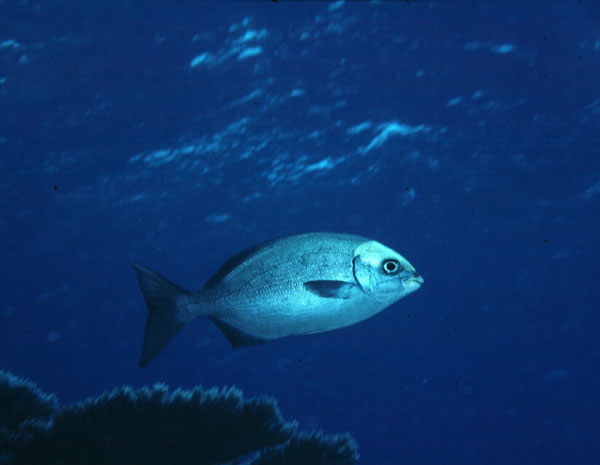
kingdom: Animalia
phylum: Chordata
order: Perciformes
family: Kyphosidae
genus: Kyphosus
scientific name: Kyphosus bigibbus
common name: Brown chub
